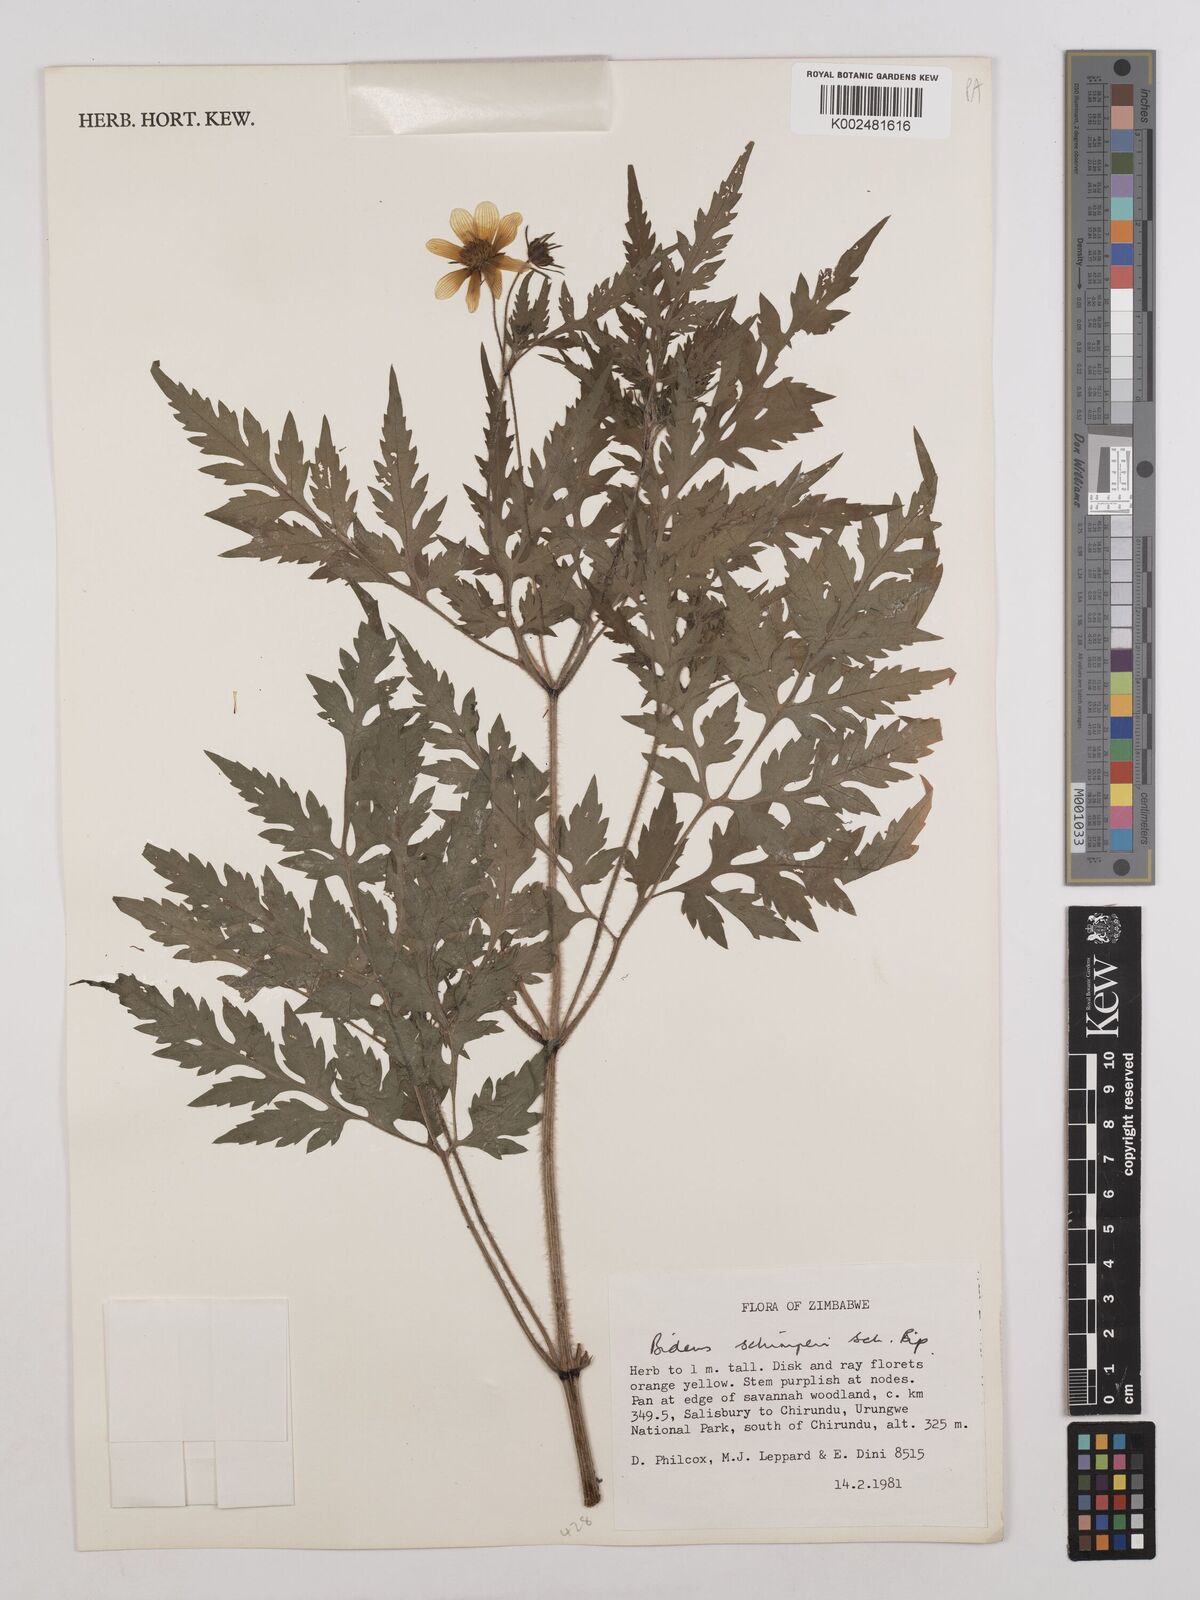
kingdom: Plantae
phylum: Tracheophyta
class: Magnoliopsida
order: Asterales
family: Asteraceae
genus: Bidens
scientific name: Bidens schimperi
